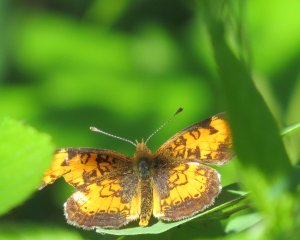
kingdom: Animalia
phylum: Arthropoda
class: Insecta
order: Lepidoptera
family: Nymphalidae
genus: Phyciodes
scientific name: Phyciodes tharos
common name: Northern Crescent
